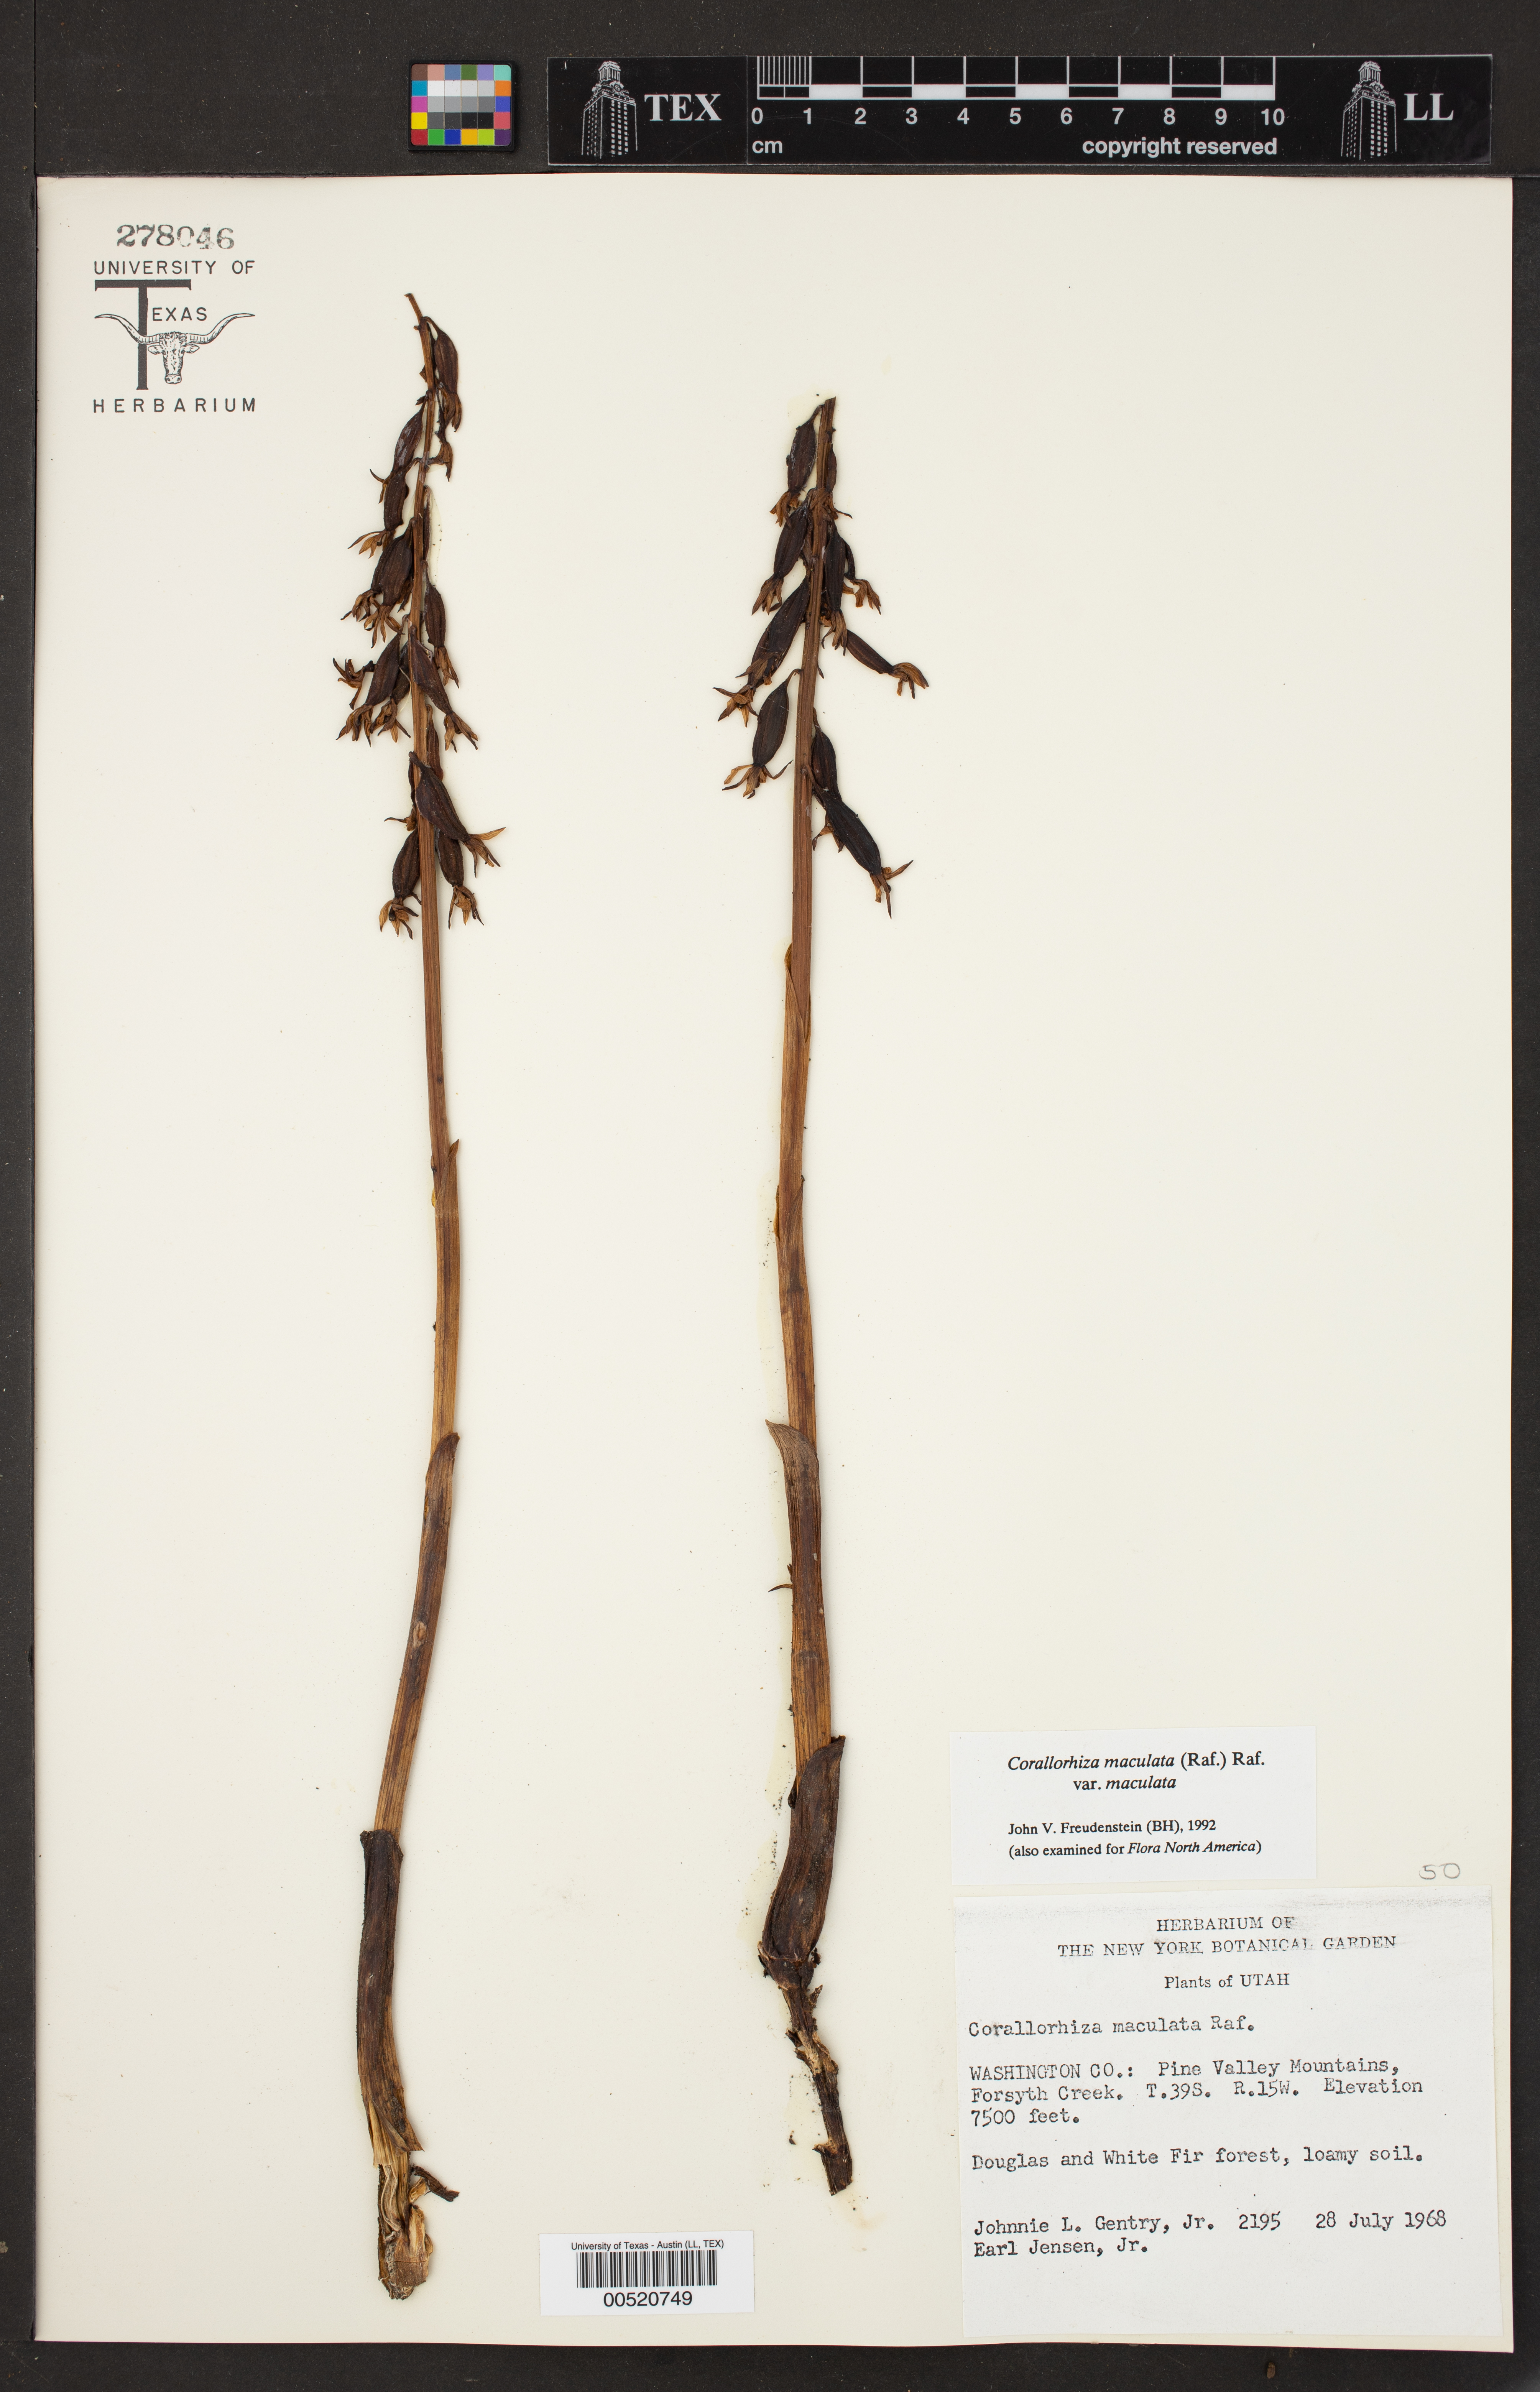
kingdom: Plantae
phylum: Tracheophyta
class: Liliopsida
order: Asparagales
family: Orchidaceae
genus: Corallorhiza
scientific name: Corallorhiza maculata
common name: Spotted coralroot
